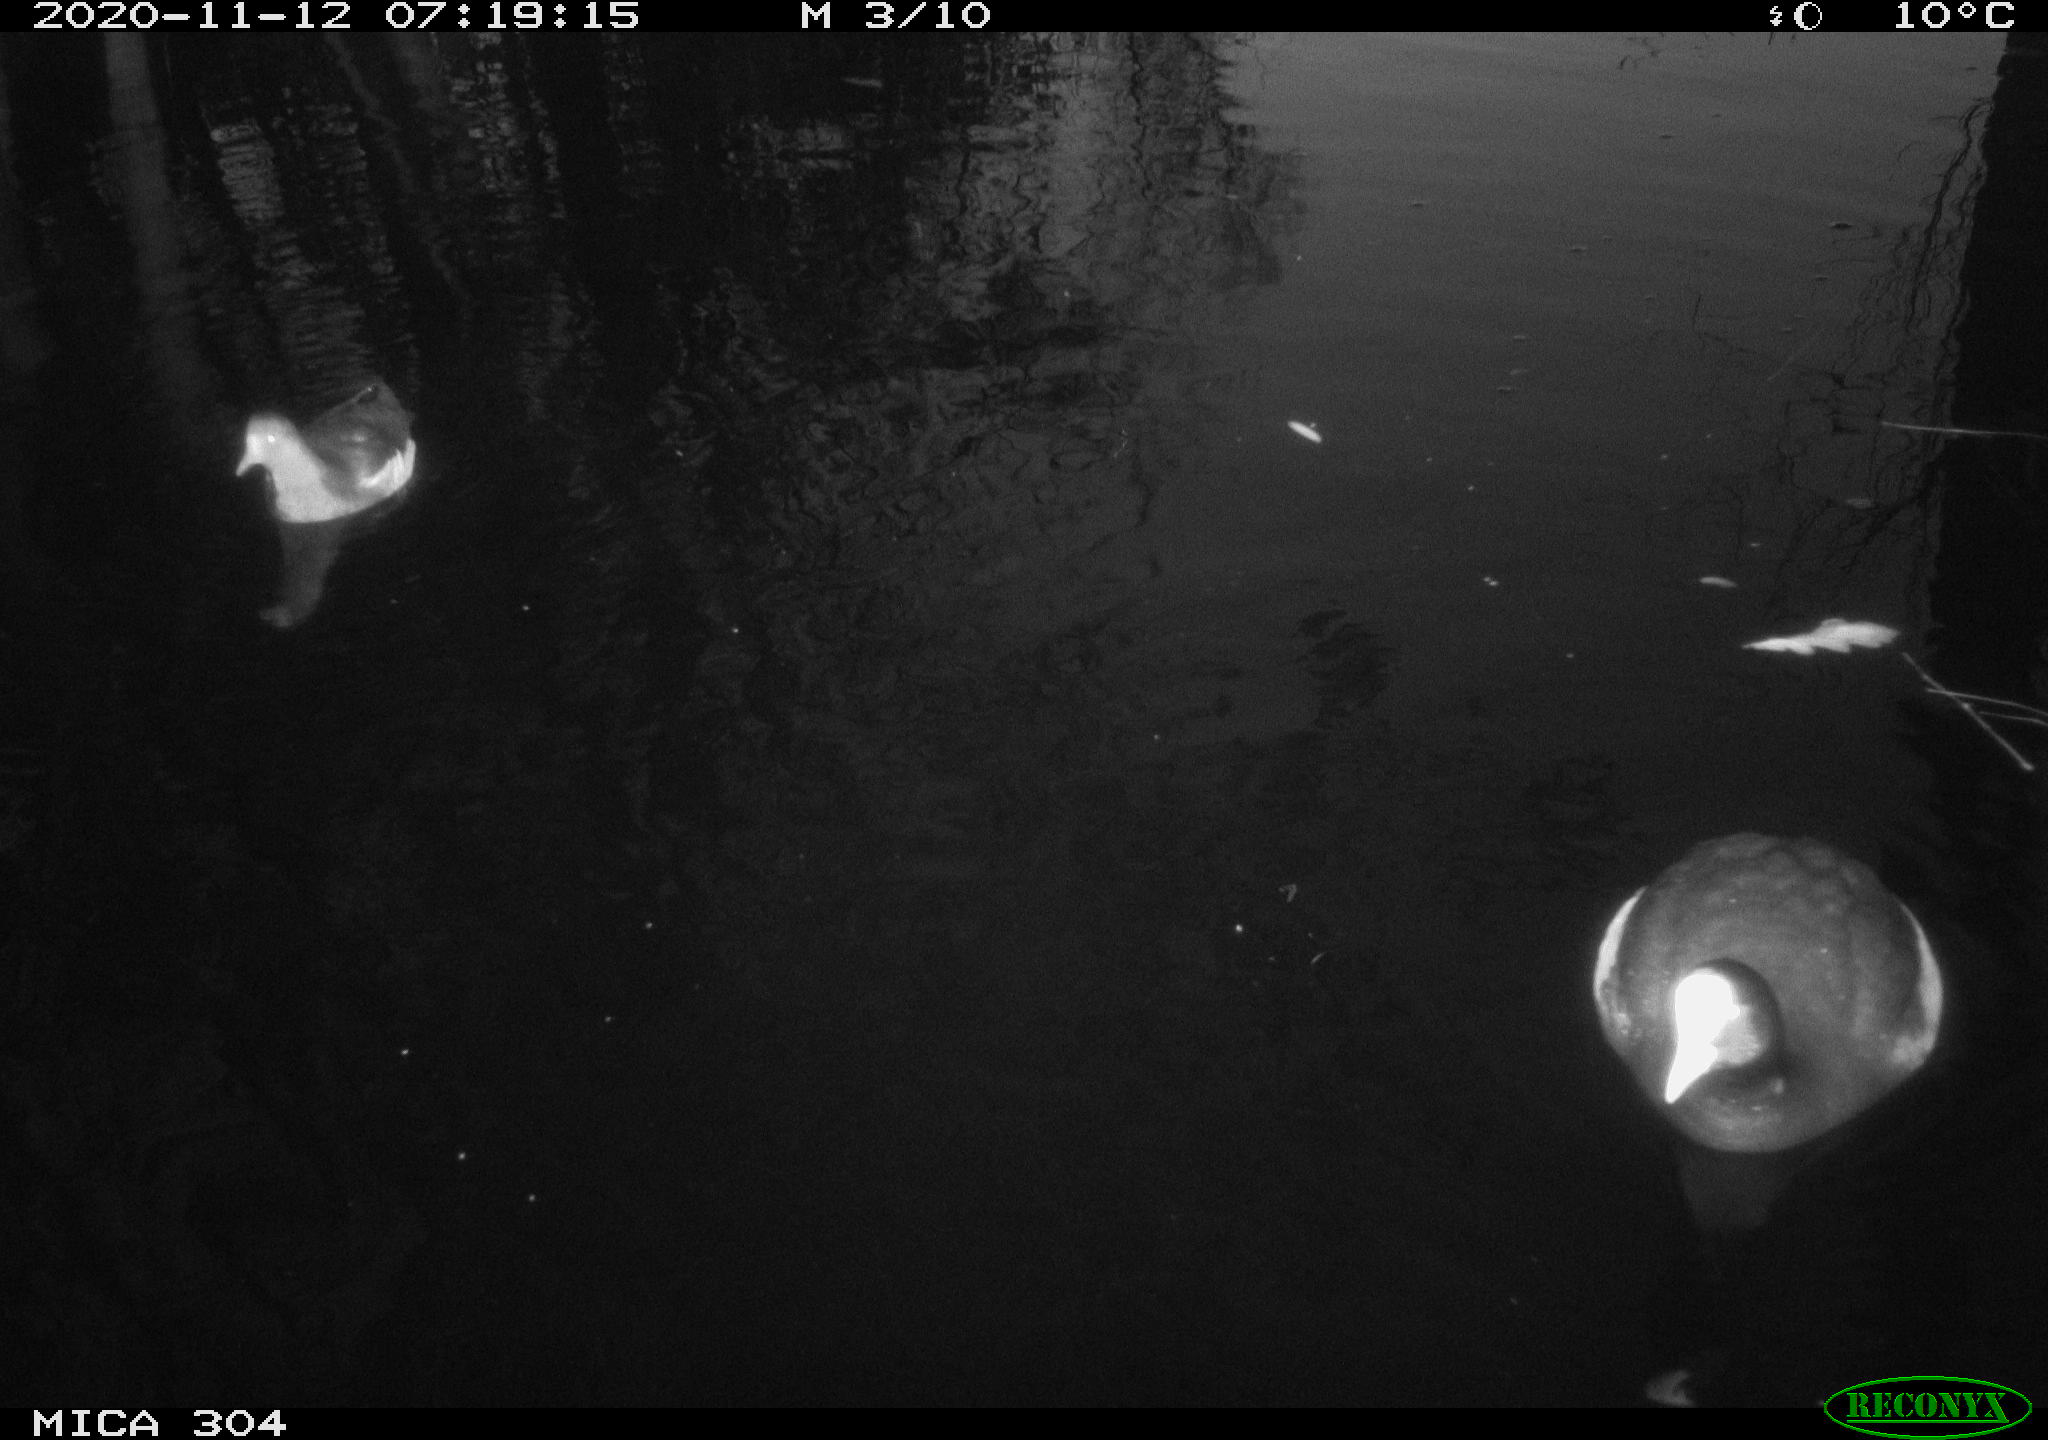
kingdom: Animalia
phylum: Chordata
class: Aves
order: Gruiformes
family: Rallidae
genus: Gallinula
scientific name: Gallinula chloropus
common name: Common moorhen
